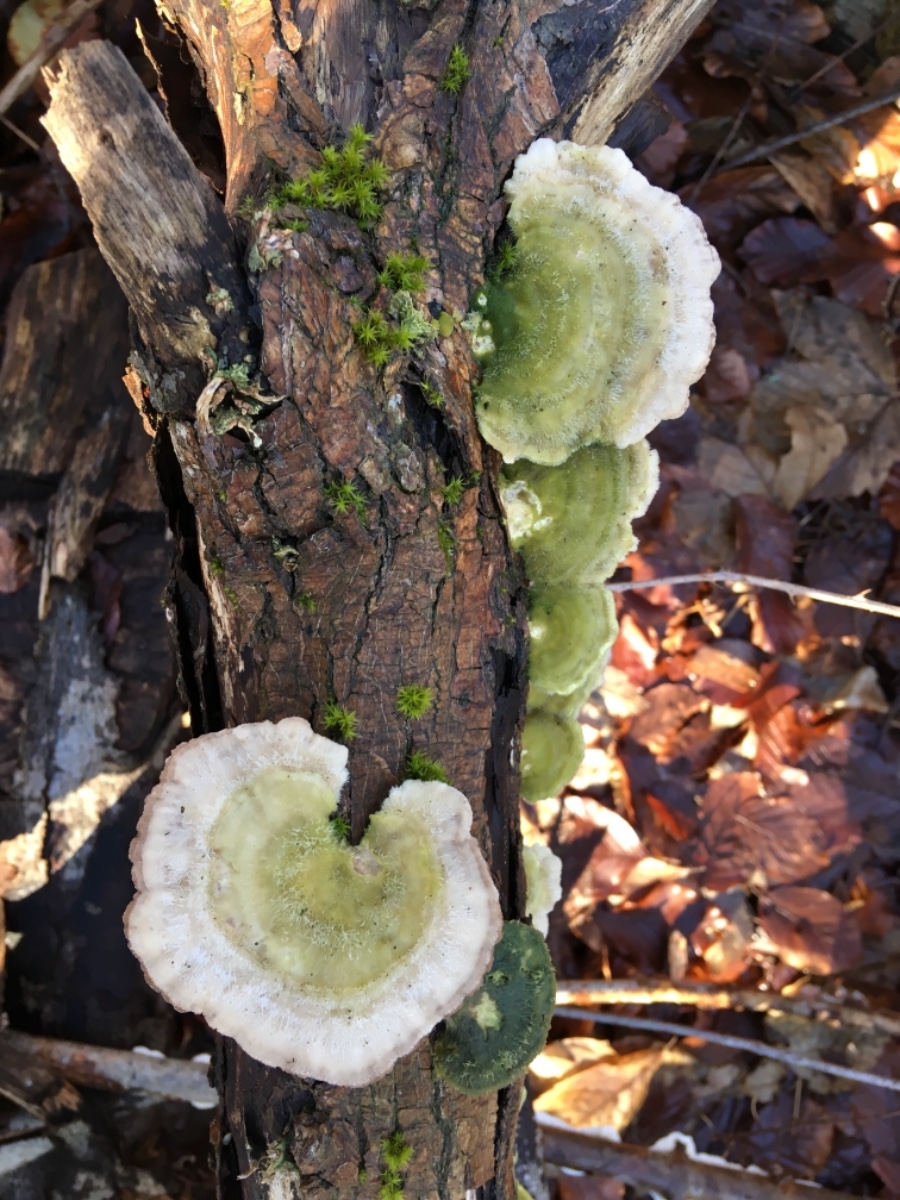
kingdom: Fungi
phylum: Basidiomycota
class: Agaricomycetes
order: Polyporales
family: Polyporaceae
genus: Trametes
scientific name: Trametes hirsuta
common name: håret læderporesvamp
